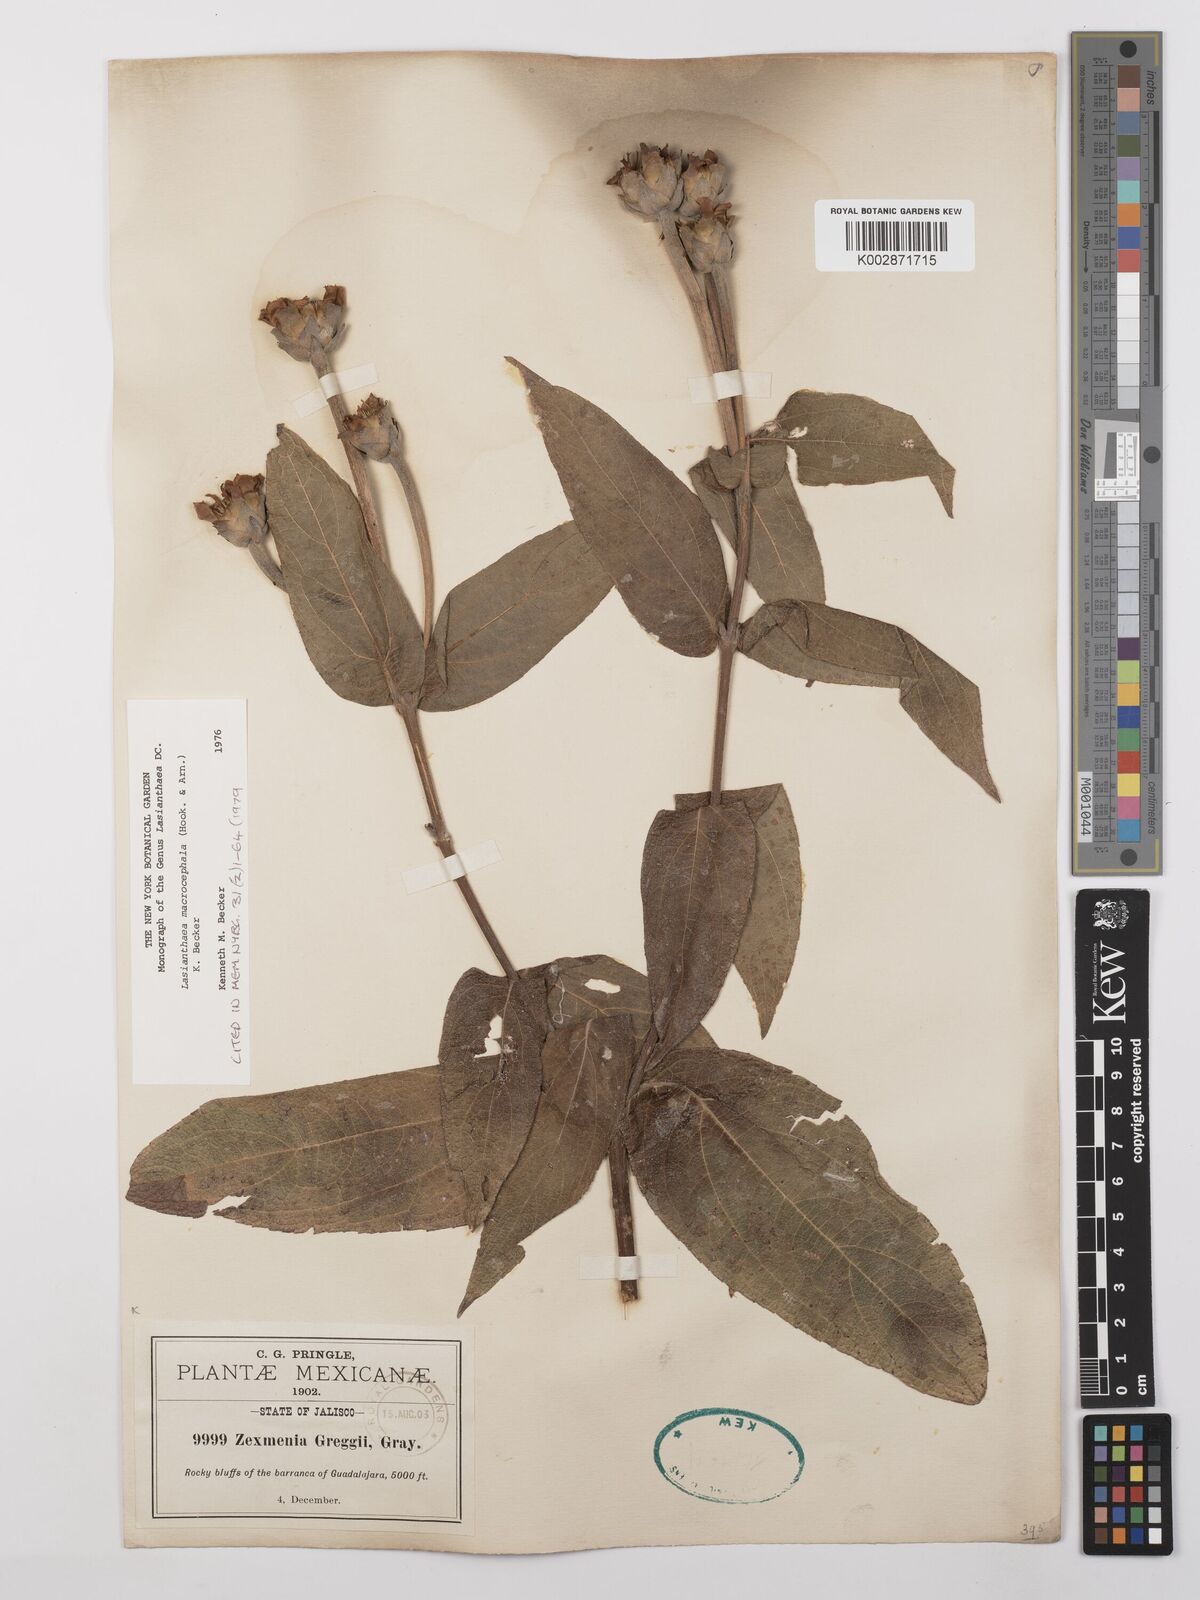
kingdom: Plantae
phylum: Tracheophyta
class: Magnoliopsida
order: Asterales
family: Asteraceae
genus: Lasianthaea
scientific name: Lasianthaea macrocephala
